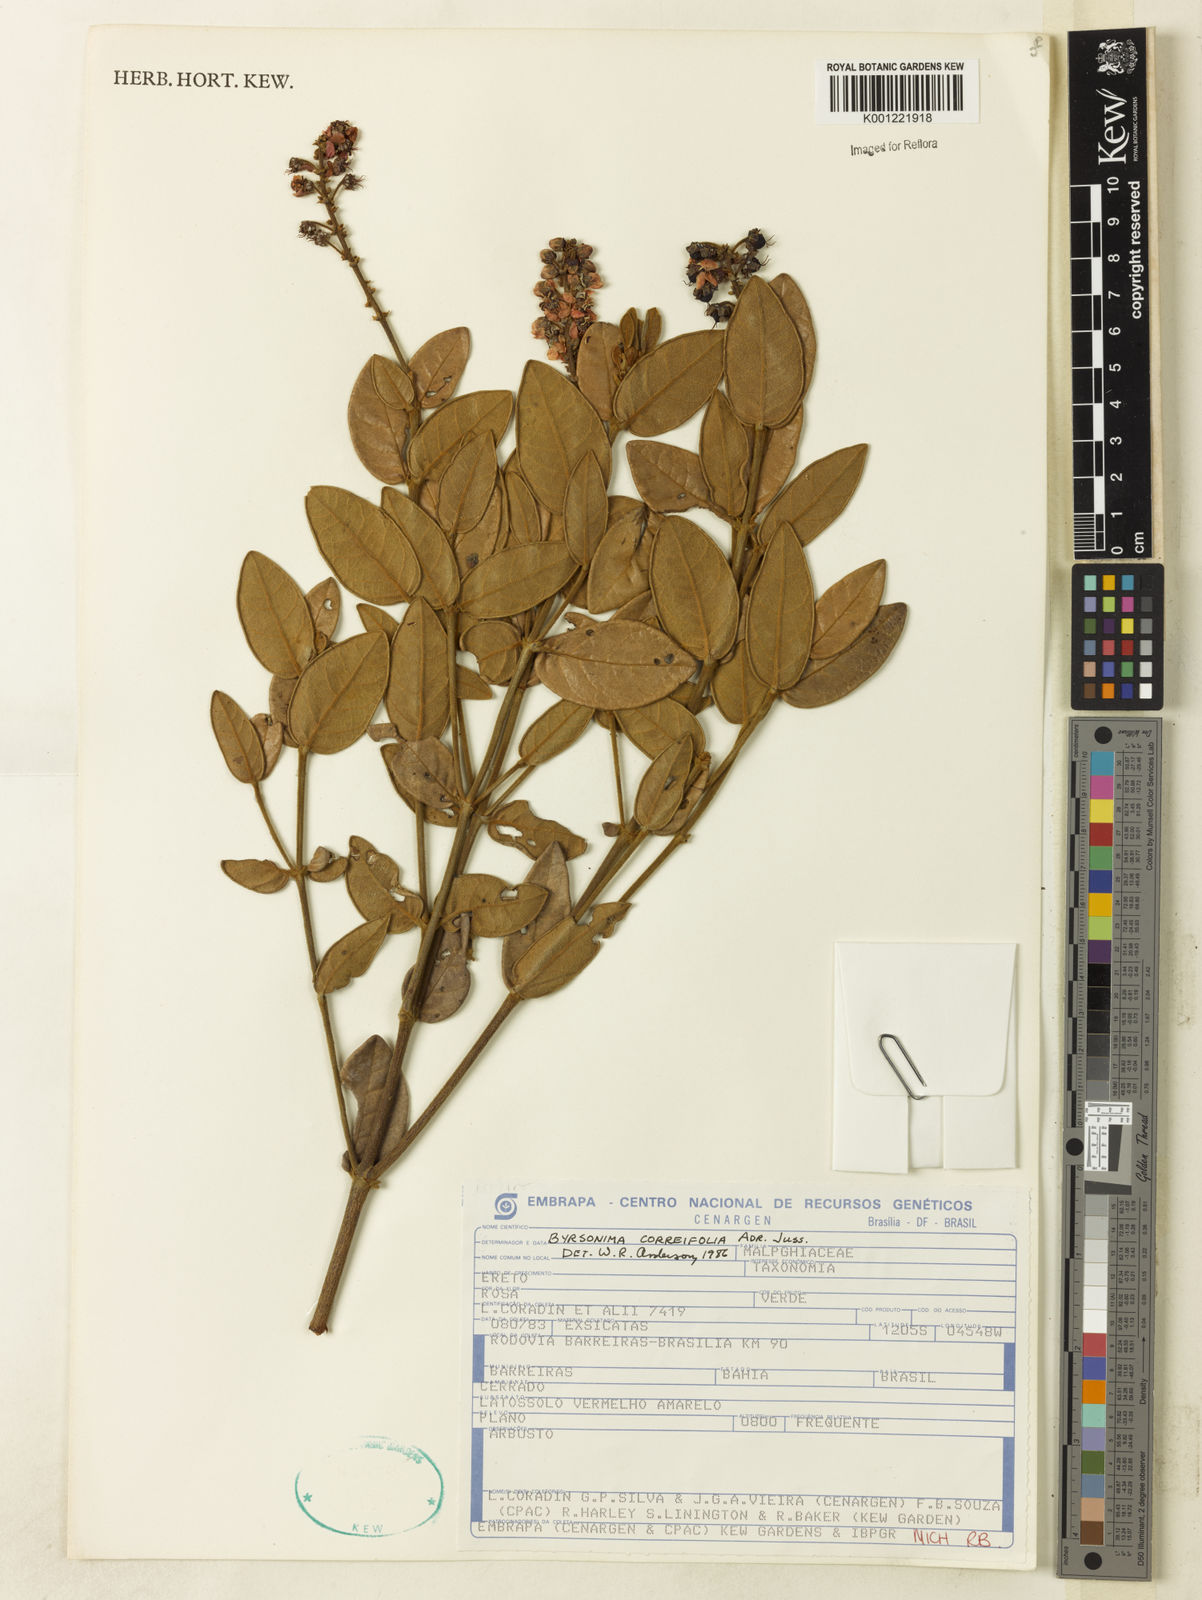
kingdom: Plantae
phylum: Tracheophyta
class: Magnoliopsida
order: Malpighiales
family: Malpighiaceae
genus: Byrsonima
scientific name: Byrsonima correifolia
